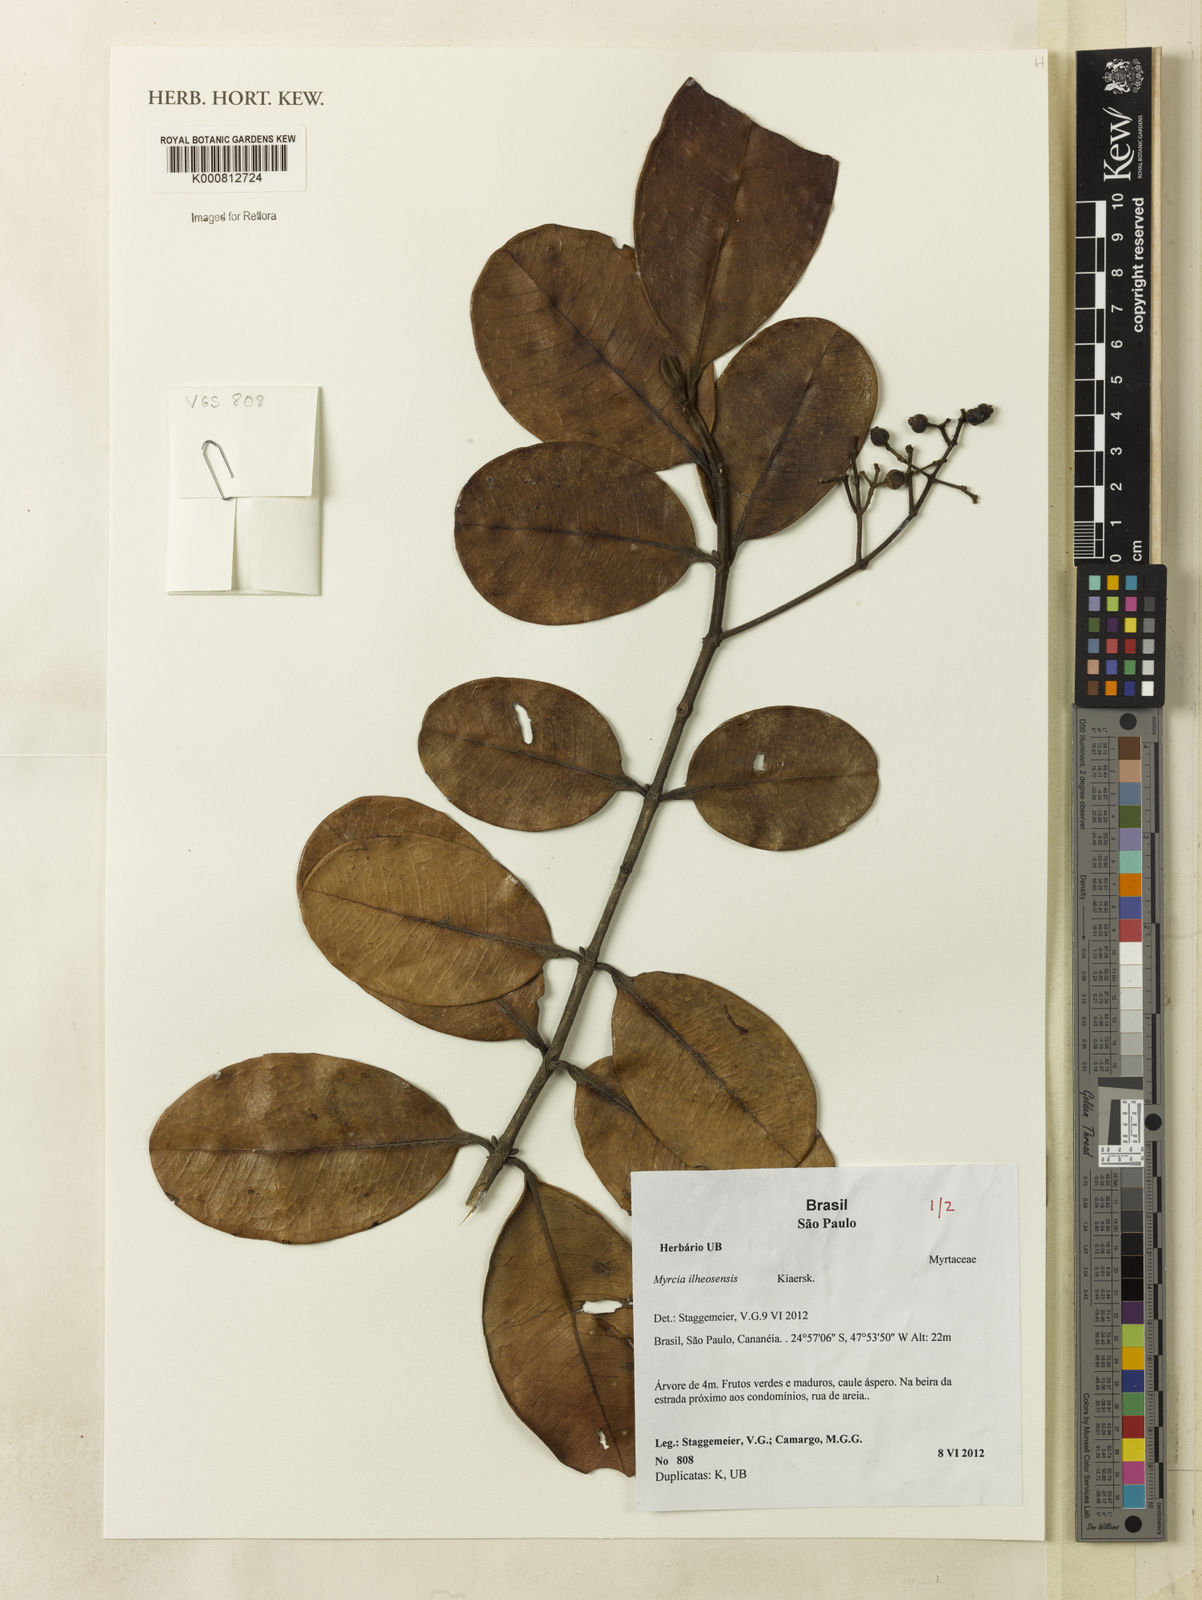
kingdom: Plantae
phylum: Tracheophyta
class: Magnoliopsida
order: Myrtales
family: Myrtaceae
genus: Myrcia
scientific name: Myrcia ilheosensis
